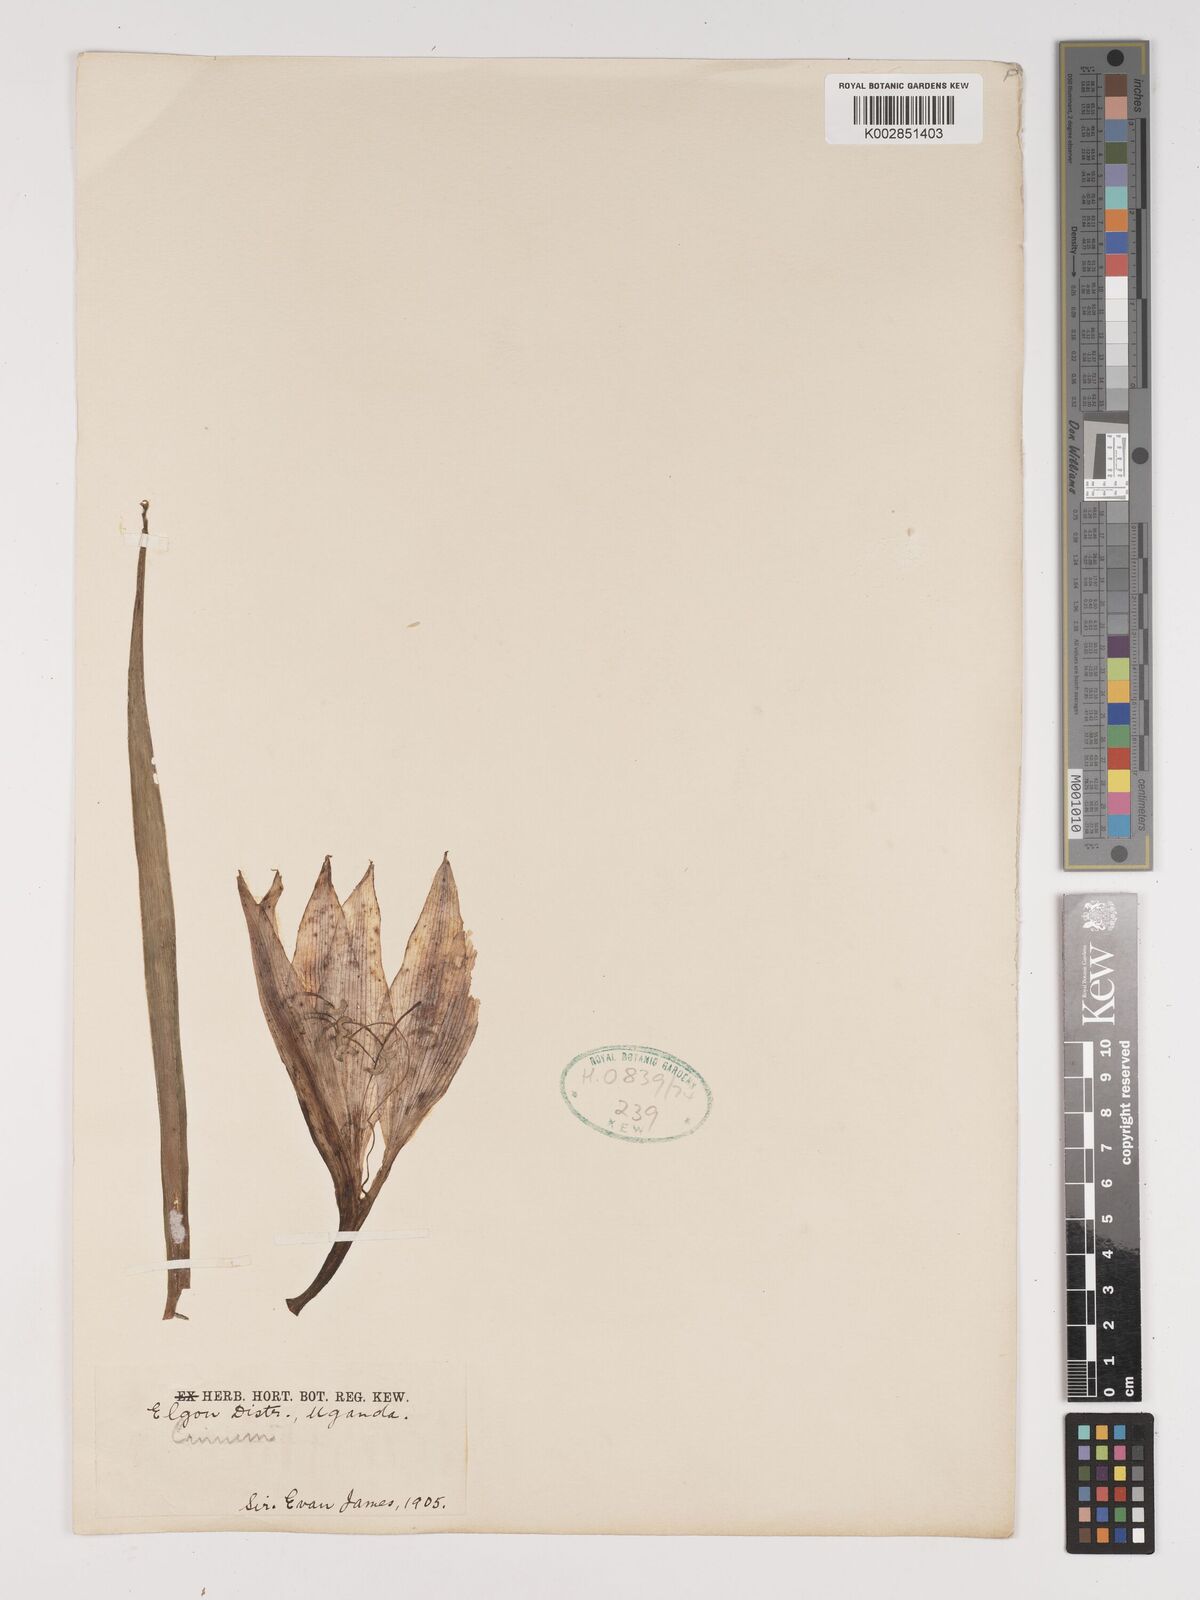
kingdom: Plantae
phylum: Tracheophyta
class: Liliopsida
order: Asparagales
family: Amaryllidaceae
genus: Crinum
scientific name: Crinum
